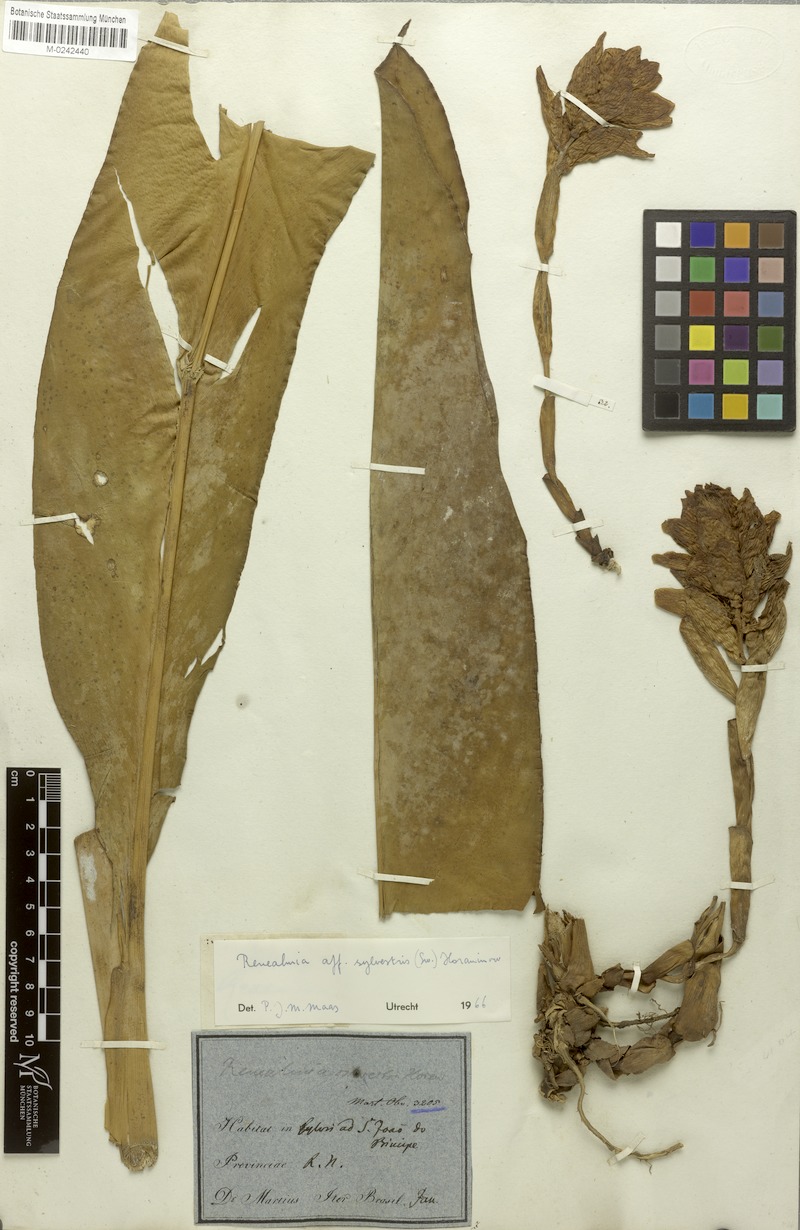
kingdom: Plantae
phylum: Tracheophyta
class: Liliopsida
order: Zingiberales
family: Zingiberaceae
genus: Renealmia
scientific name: Renealmia striata
